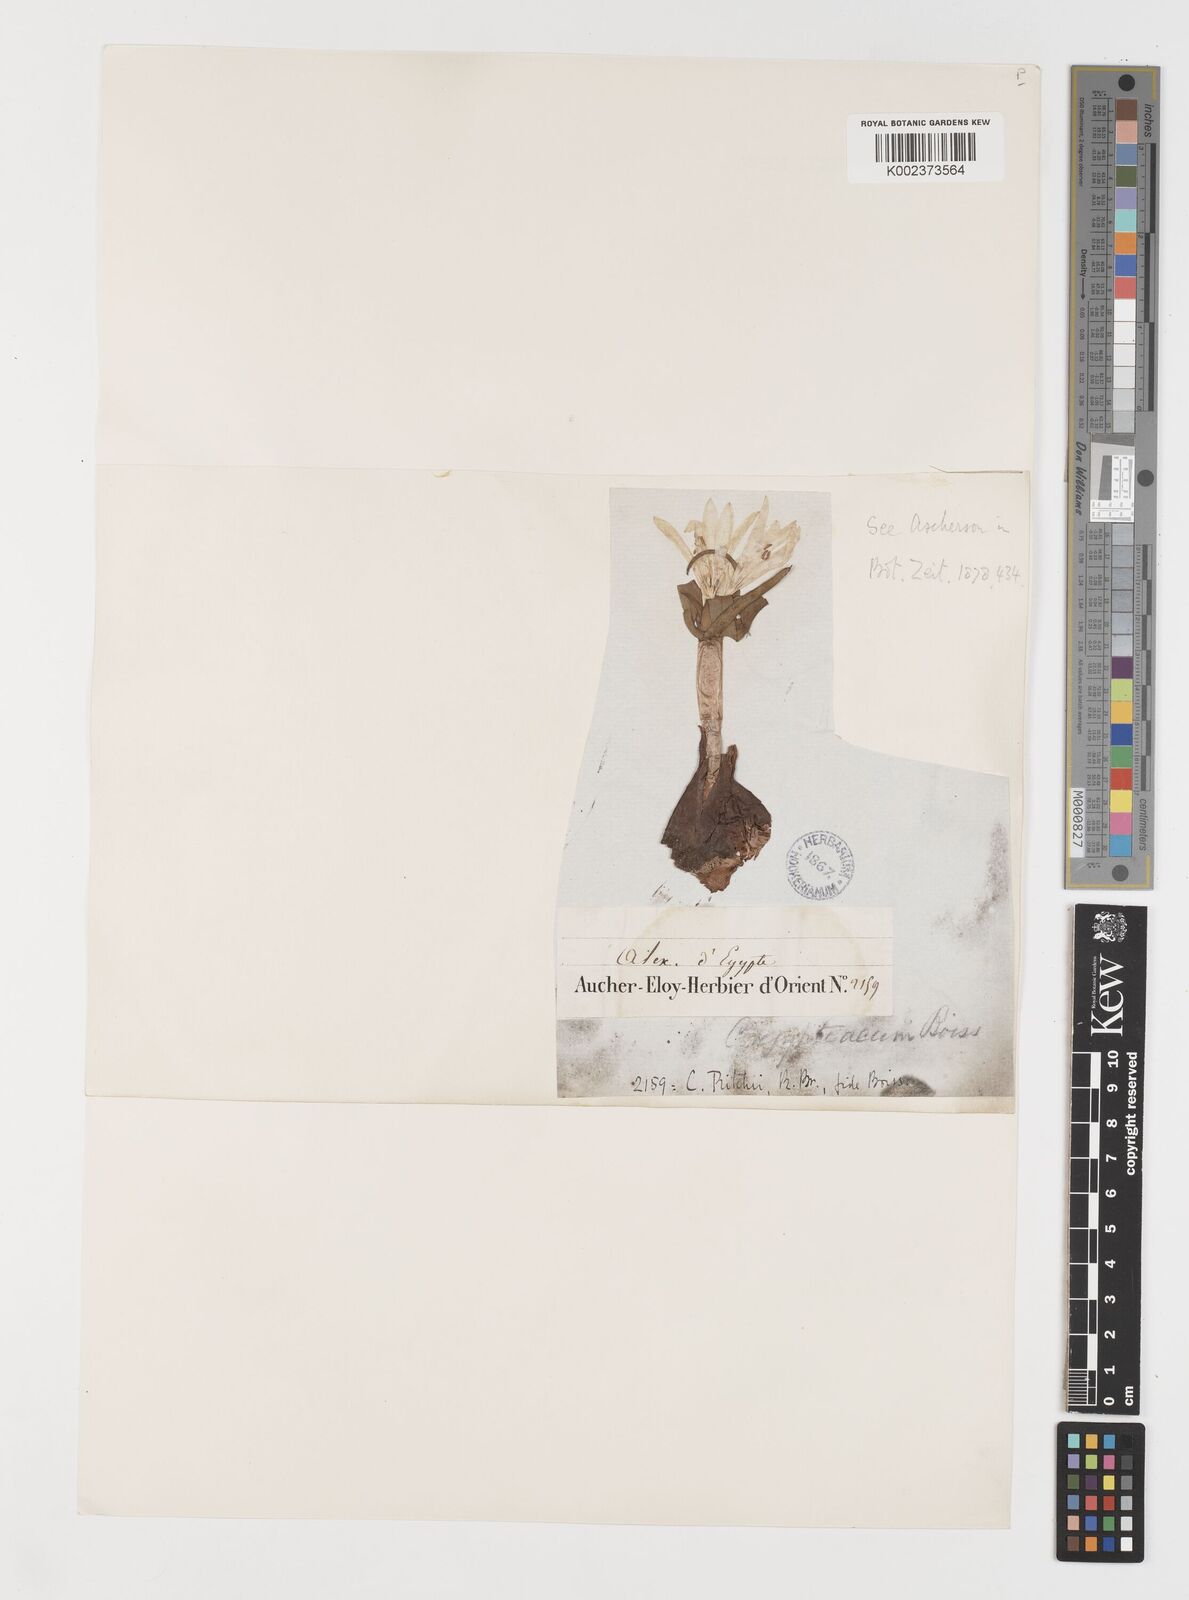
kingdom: Plantae
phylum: Tracheophyta
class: Liliopsida
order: Liliales
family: Colchicaceae
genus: Colchicum
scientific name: Colchicum ritchii
